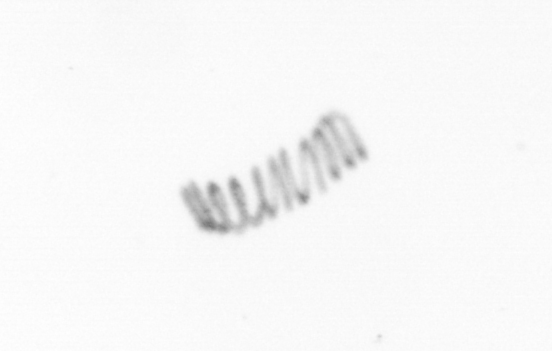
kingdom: Chromista
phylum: Ochrophyta
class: Bacillariophyceae
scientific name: Bacillariophyceae
